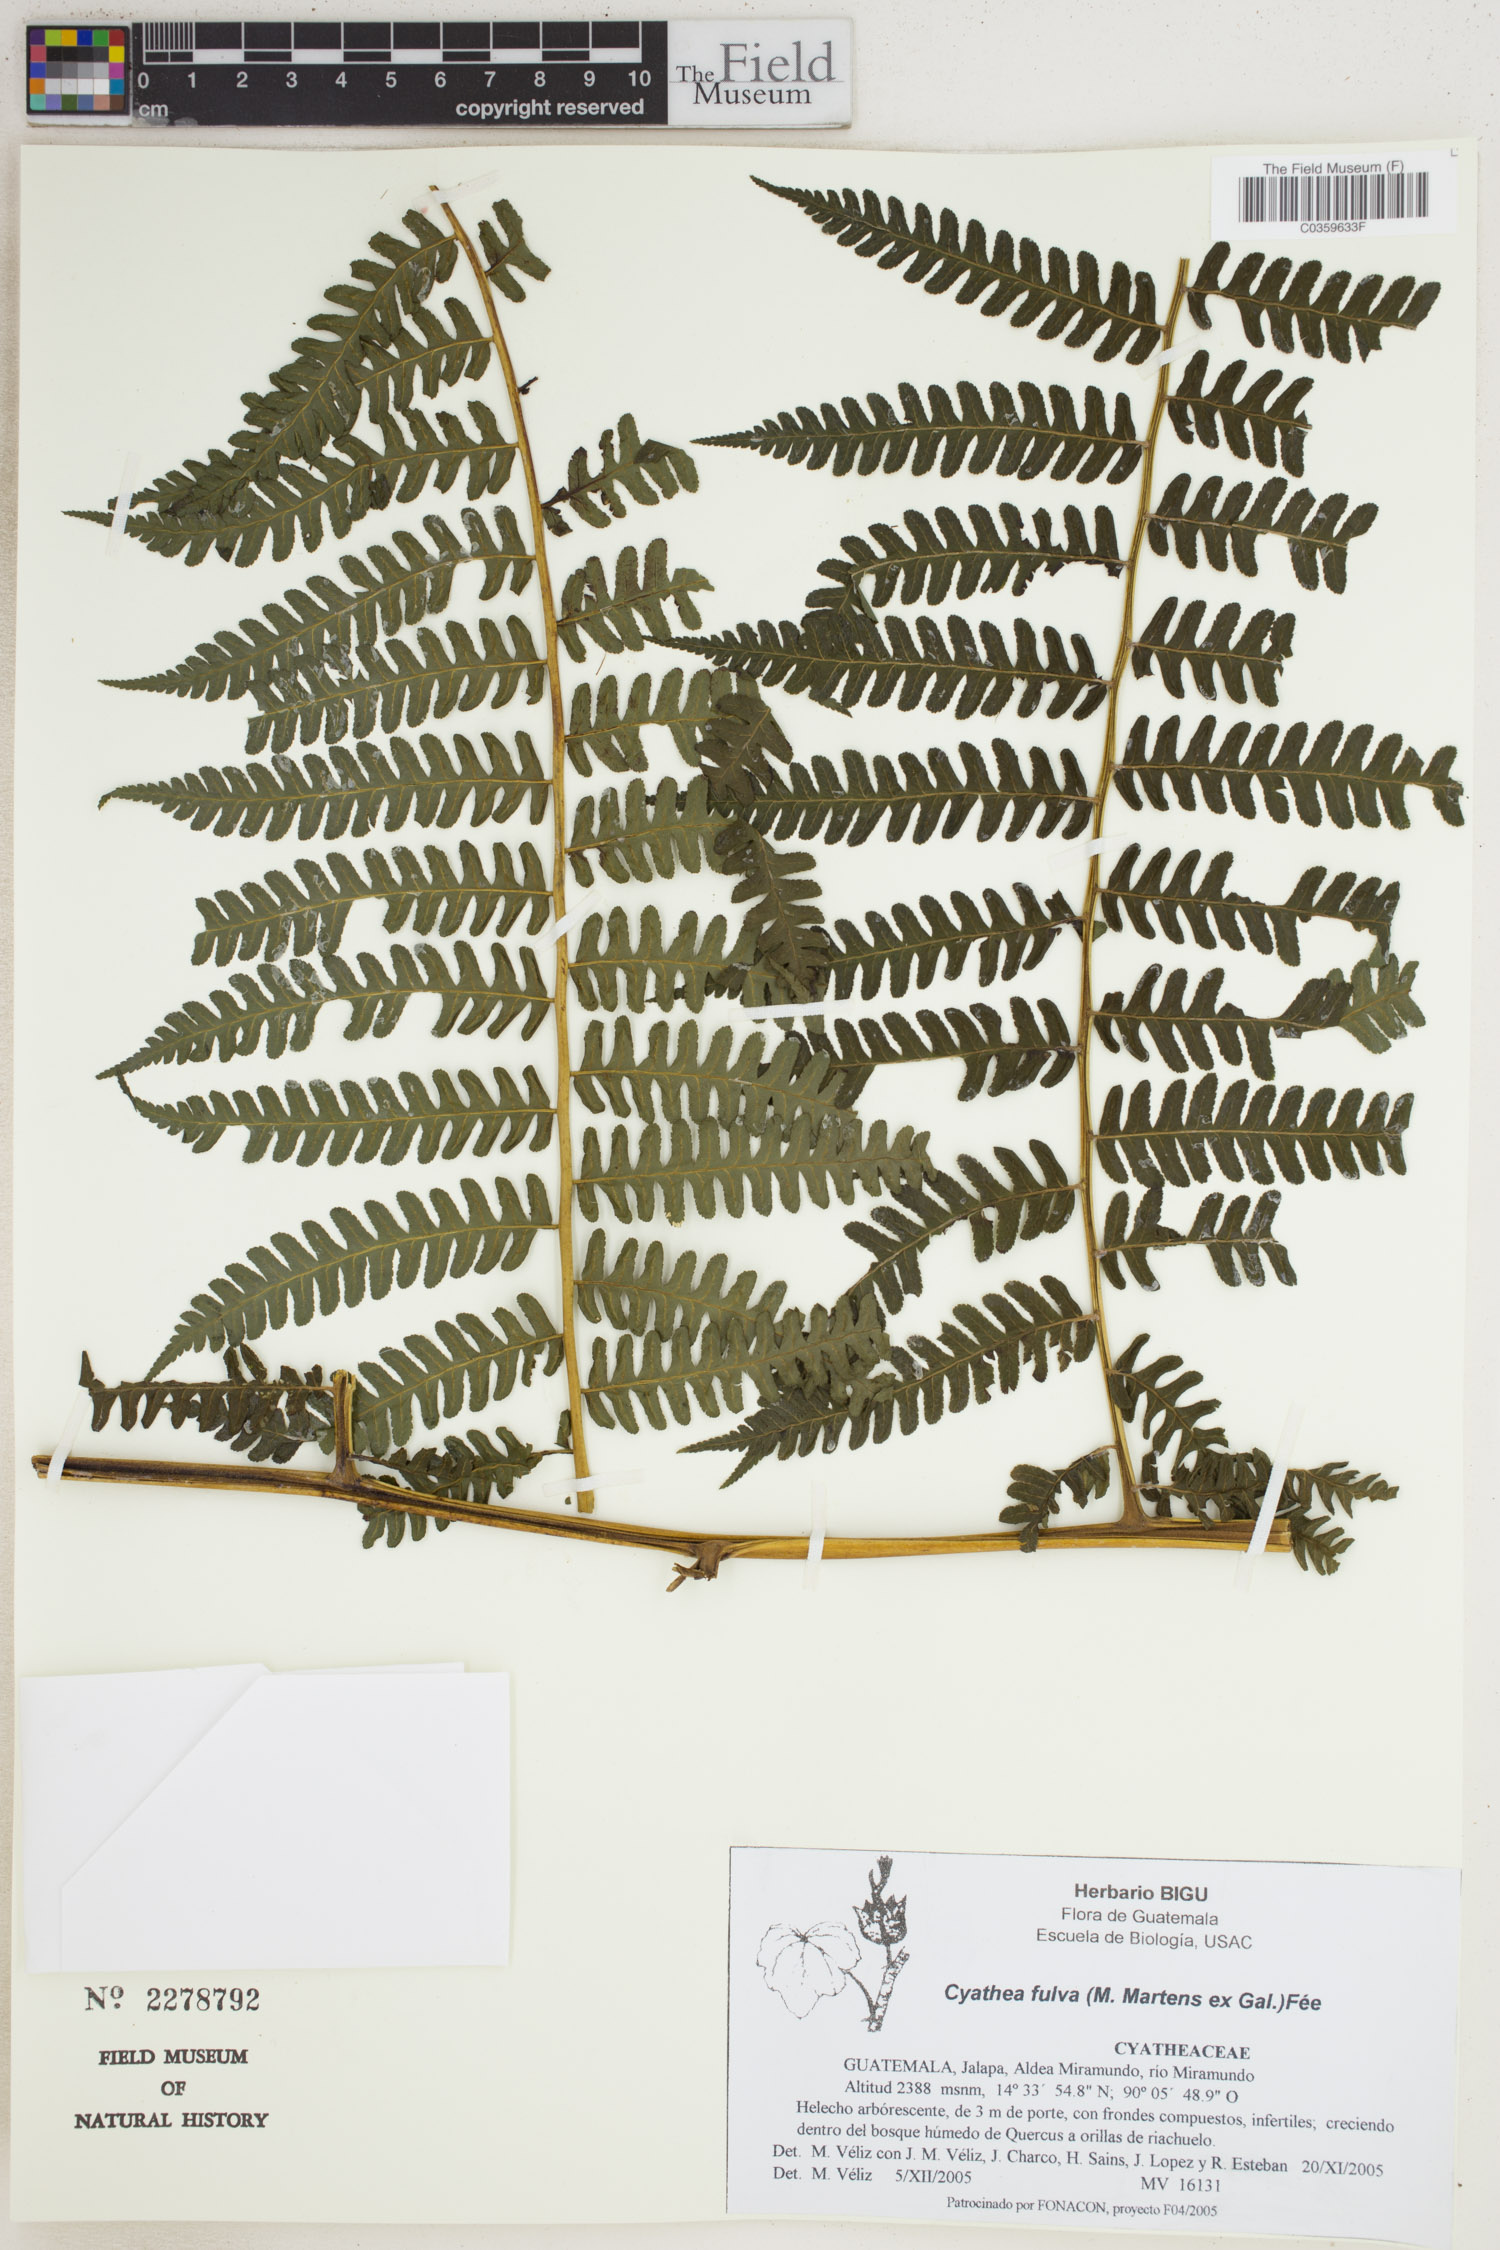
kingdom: Plantae
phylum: Tracheophyta
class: Polypodiopsida
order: Cyatheales
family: Cyatheaceae
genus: Cyathea
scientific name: Cyathea fulva
